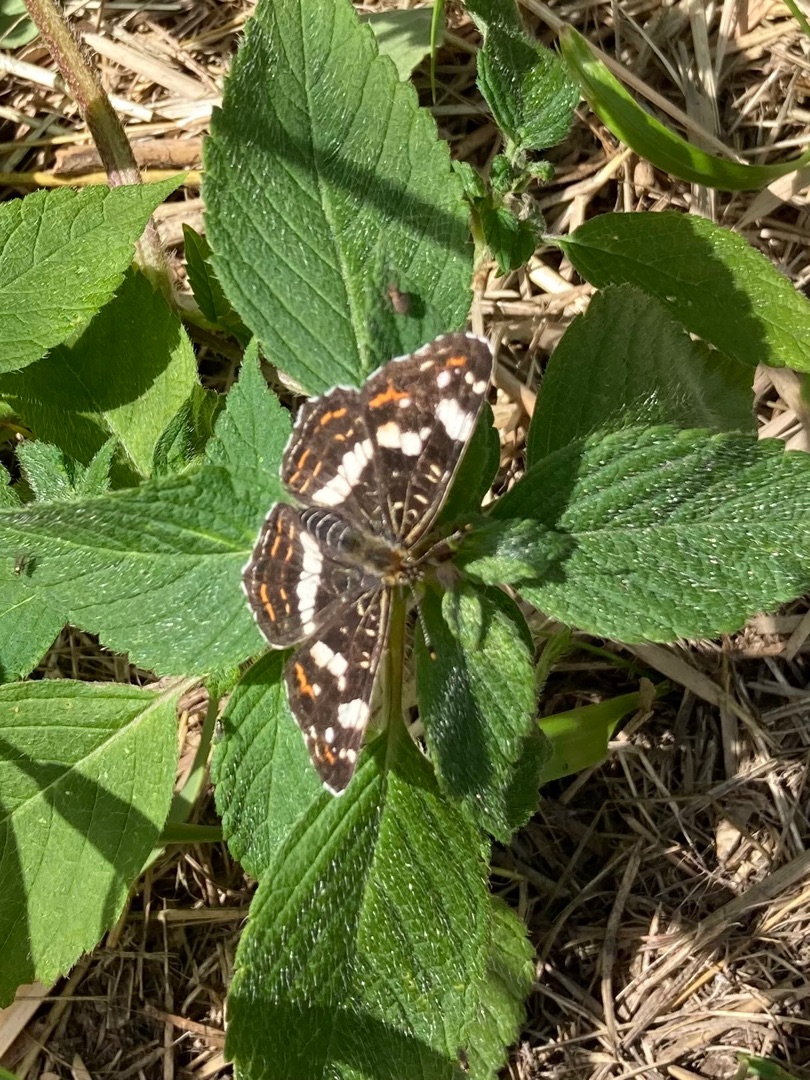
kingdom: Animalia
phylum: Arthropoda
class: Insecta
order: Lepidoptera
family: Nymphalidae
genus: Araschnia
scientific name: Araschnia levana
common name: Nældesommerfugl
